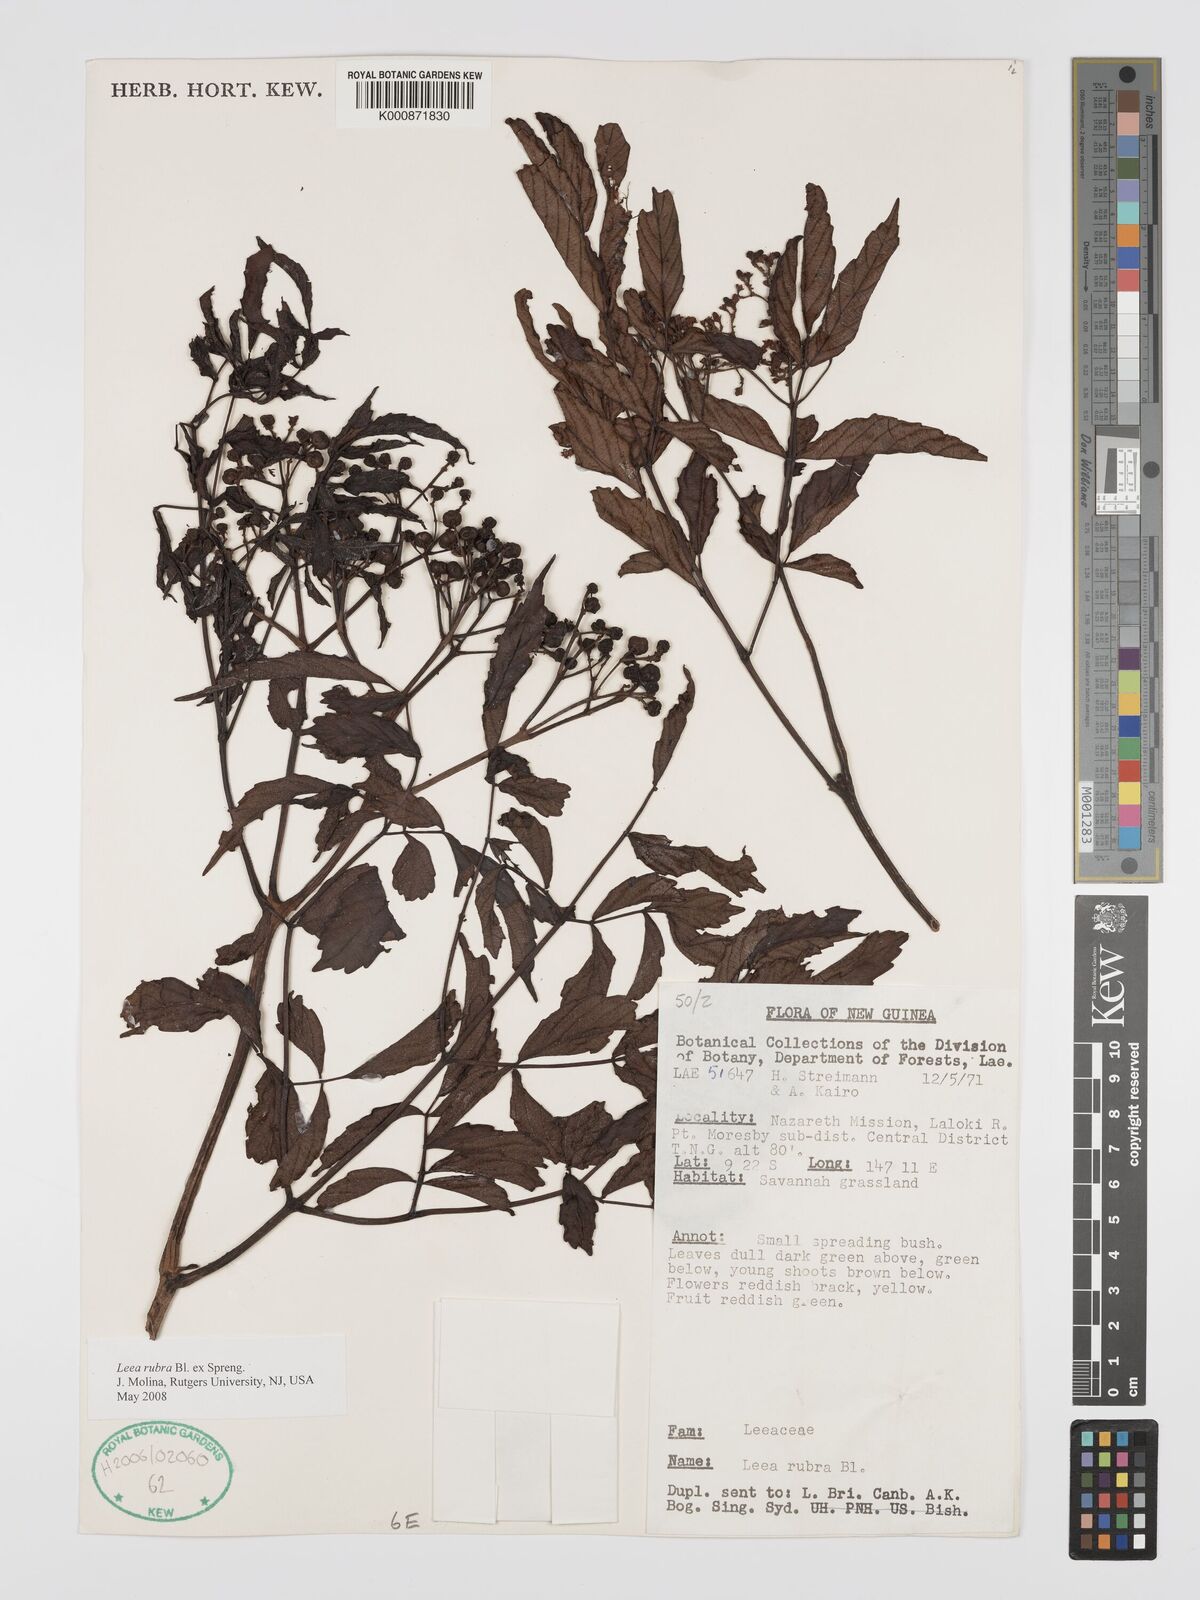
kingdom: Plantae
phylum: Tracheophyta
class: Magnoliopsida
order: Vitales
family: Vitaceae
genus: Leea
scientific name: Leea
